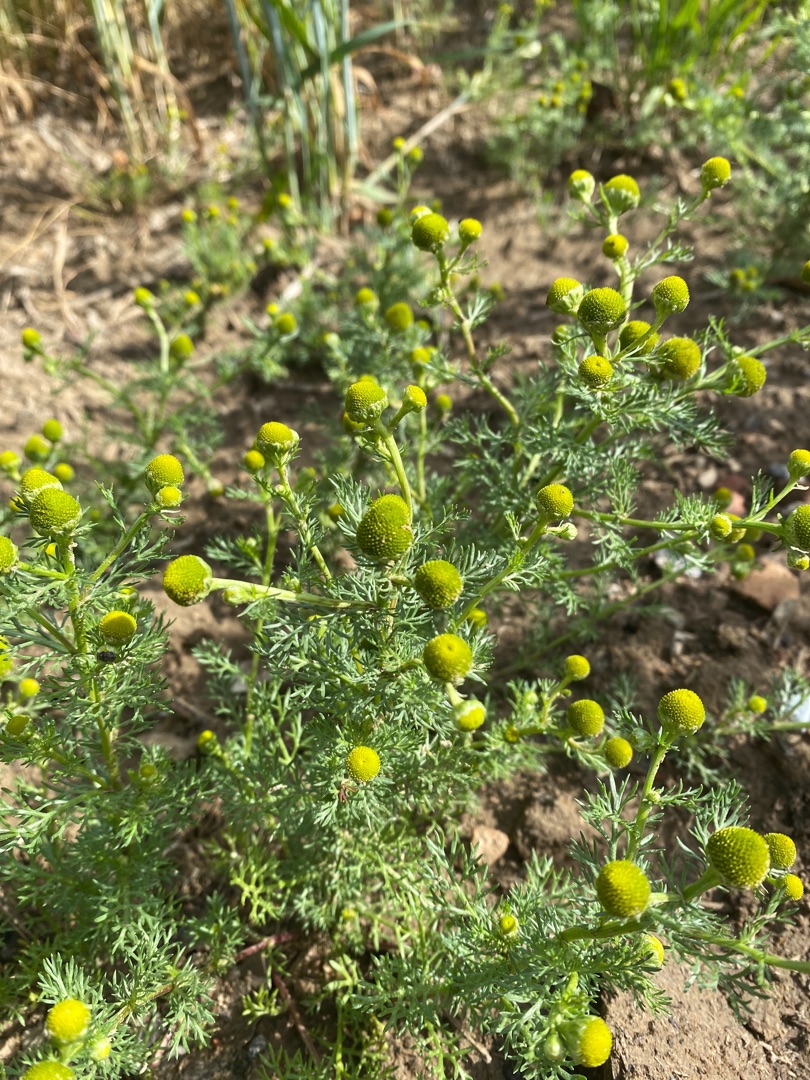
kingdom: Plantae
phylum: Tracheophyta
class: Magnoliopsida
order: Asterales
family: Asteraceae
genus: Matricaria
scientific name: Matricaria discoidea
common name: Skive-kamille
